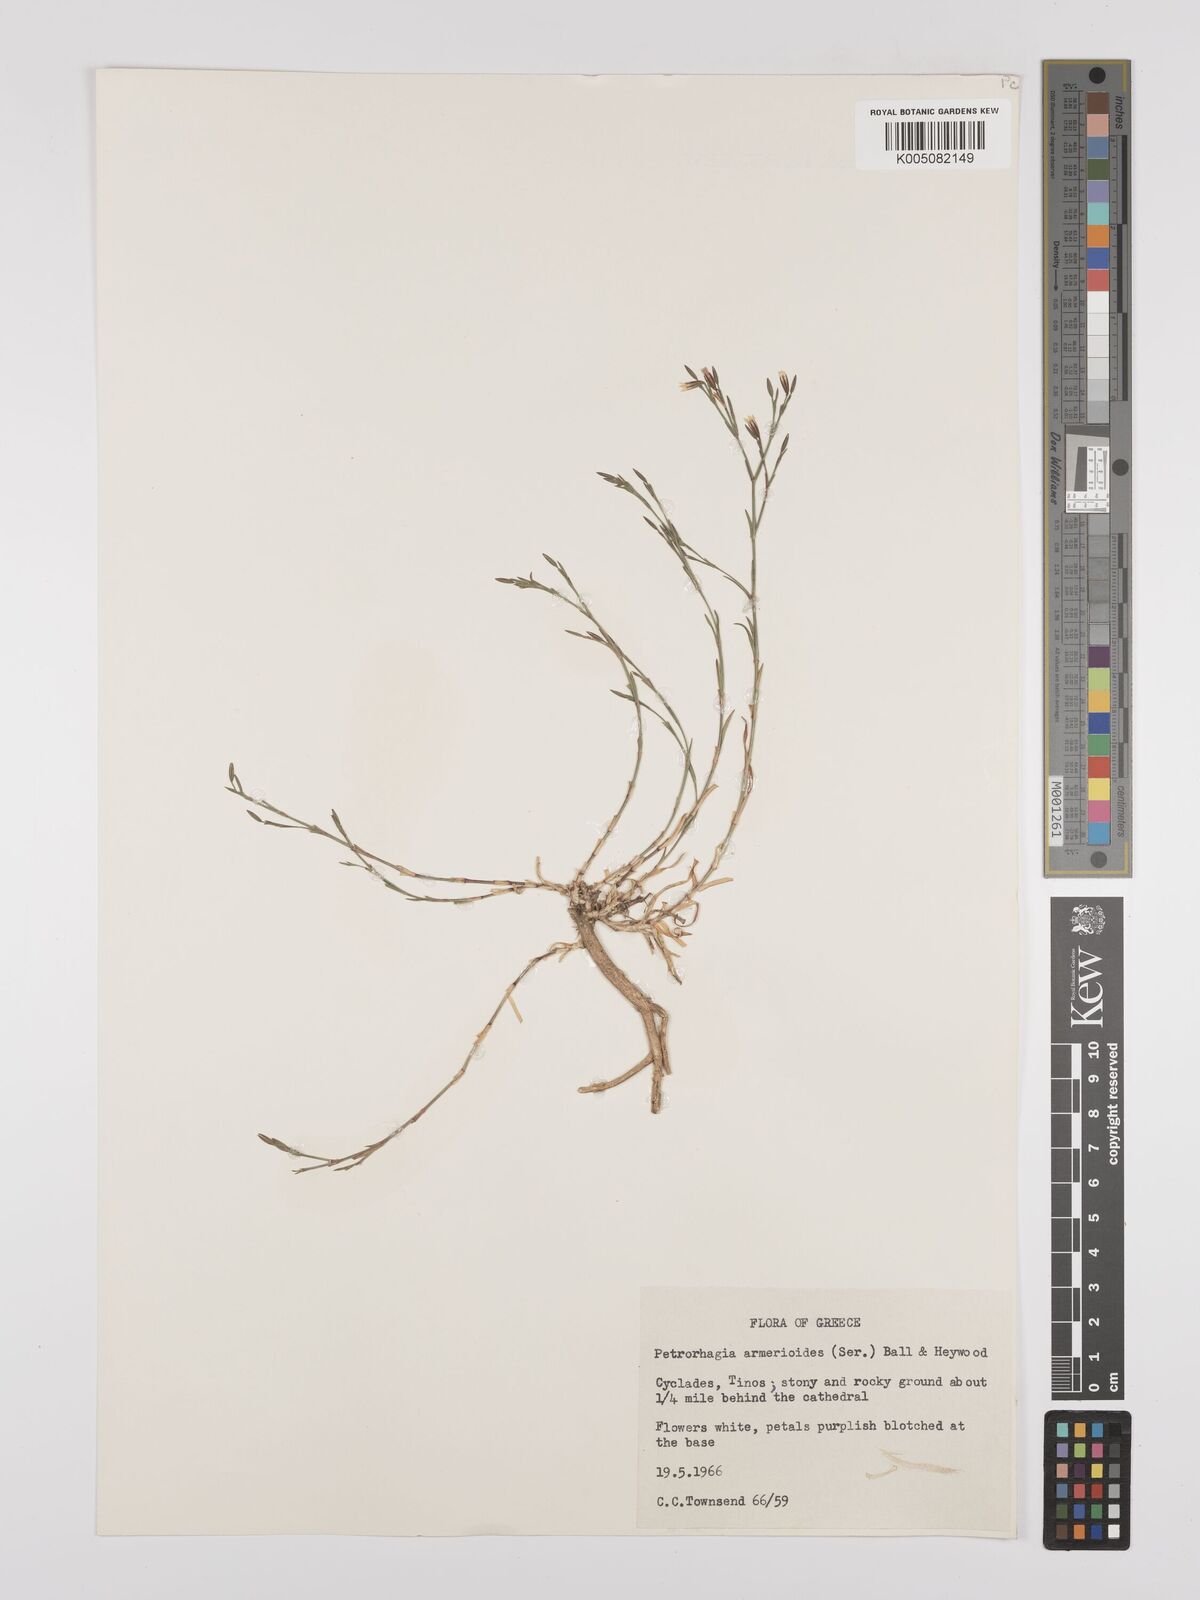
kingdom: Plantae
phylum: Tracheophyta
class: Magnoliopsida
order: Caryophyllales
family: Caryophyllaceae
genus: Dianthus
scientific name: Dianthus tunicoides
